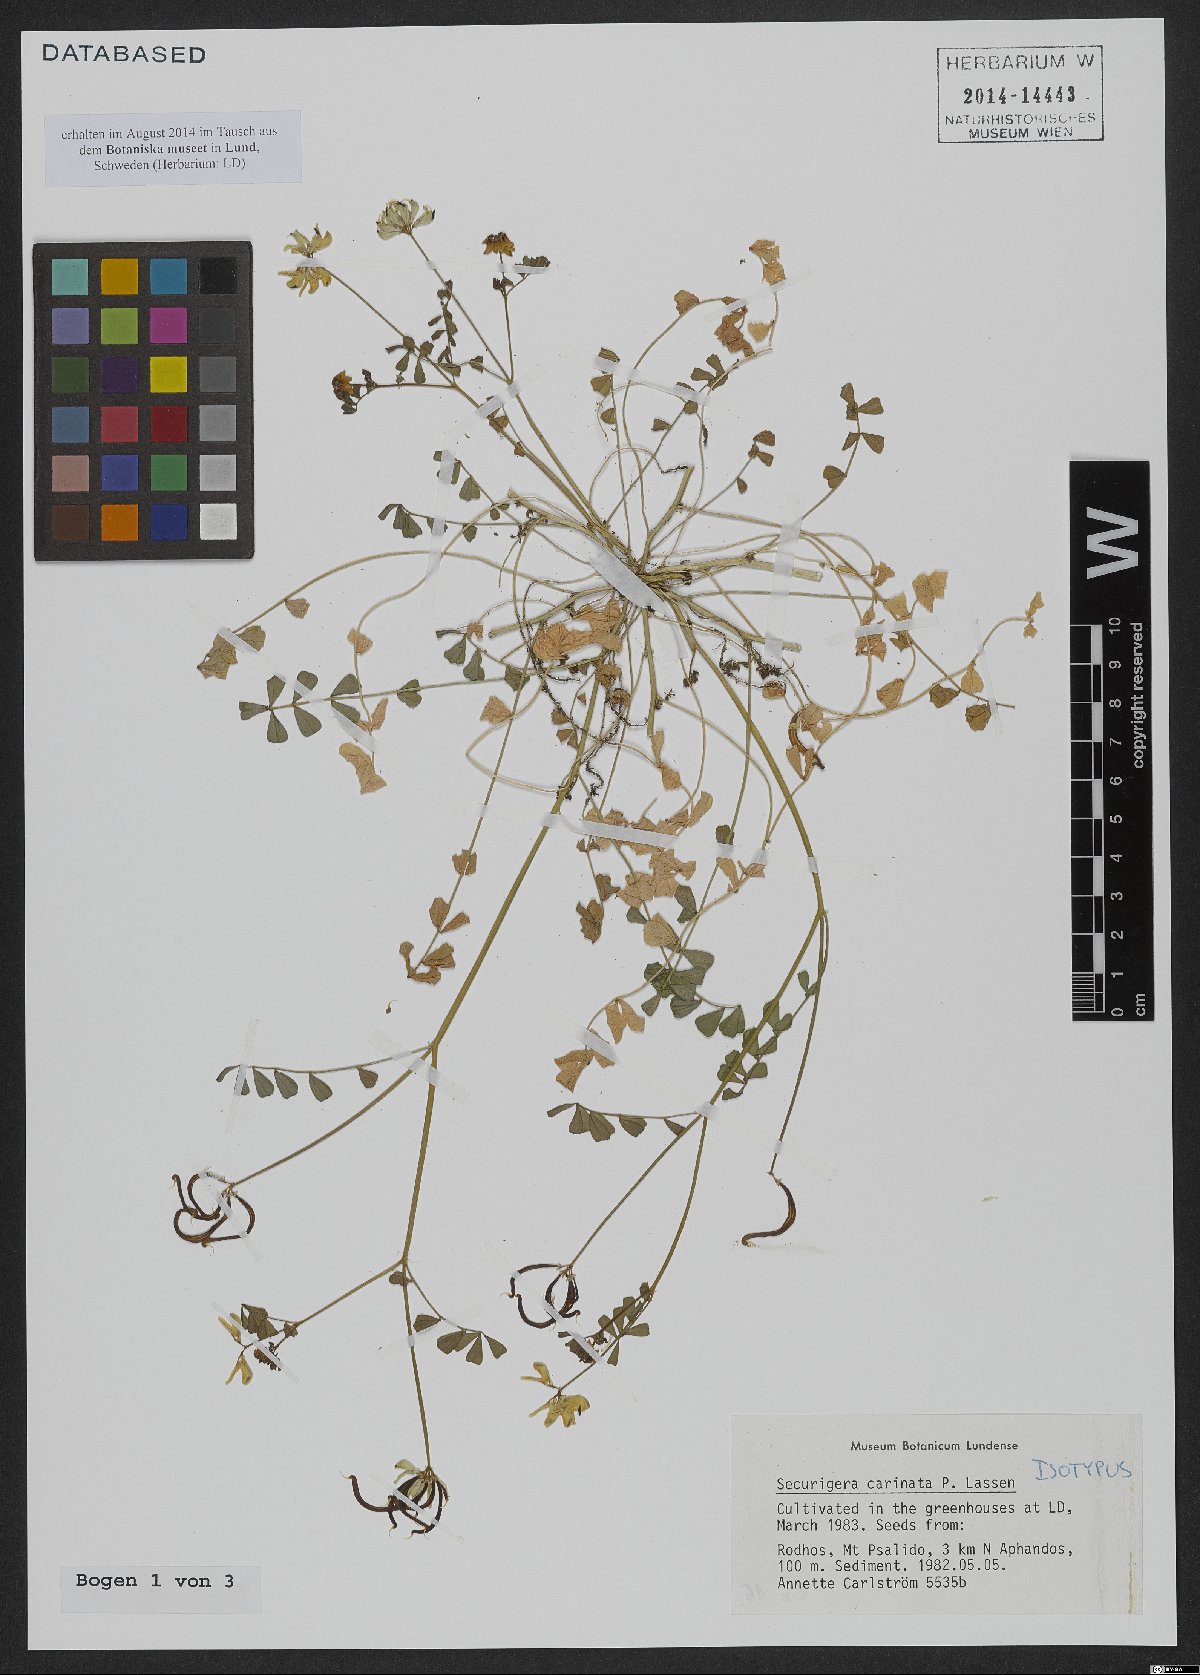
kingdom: Plantae
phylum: Tracheophyta
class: Magnoliopsida
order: Fabales
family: Fabaceae
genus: Coronilla
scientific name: Coronilla carinata
